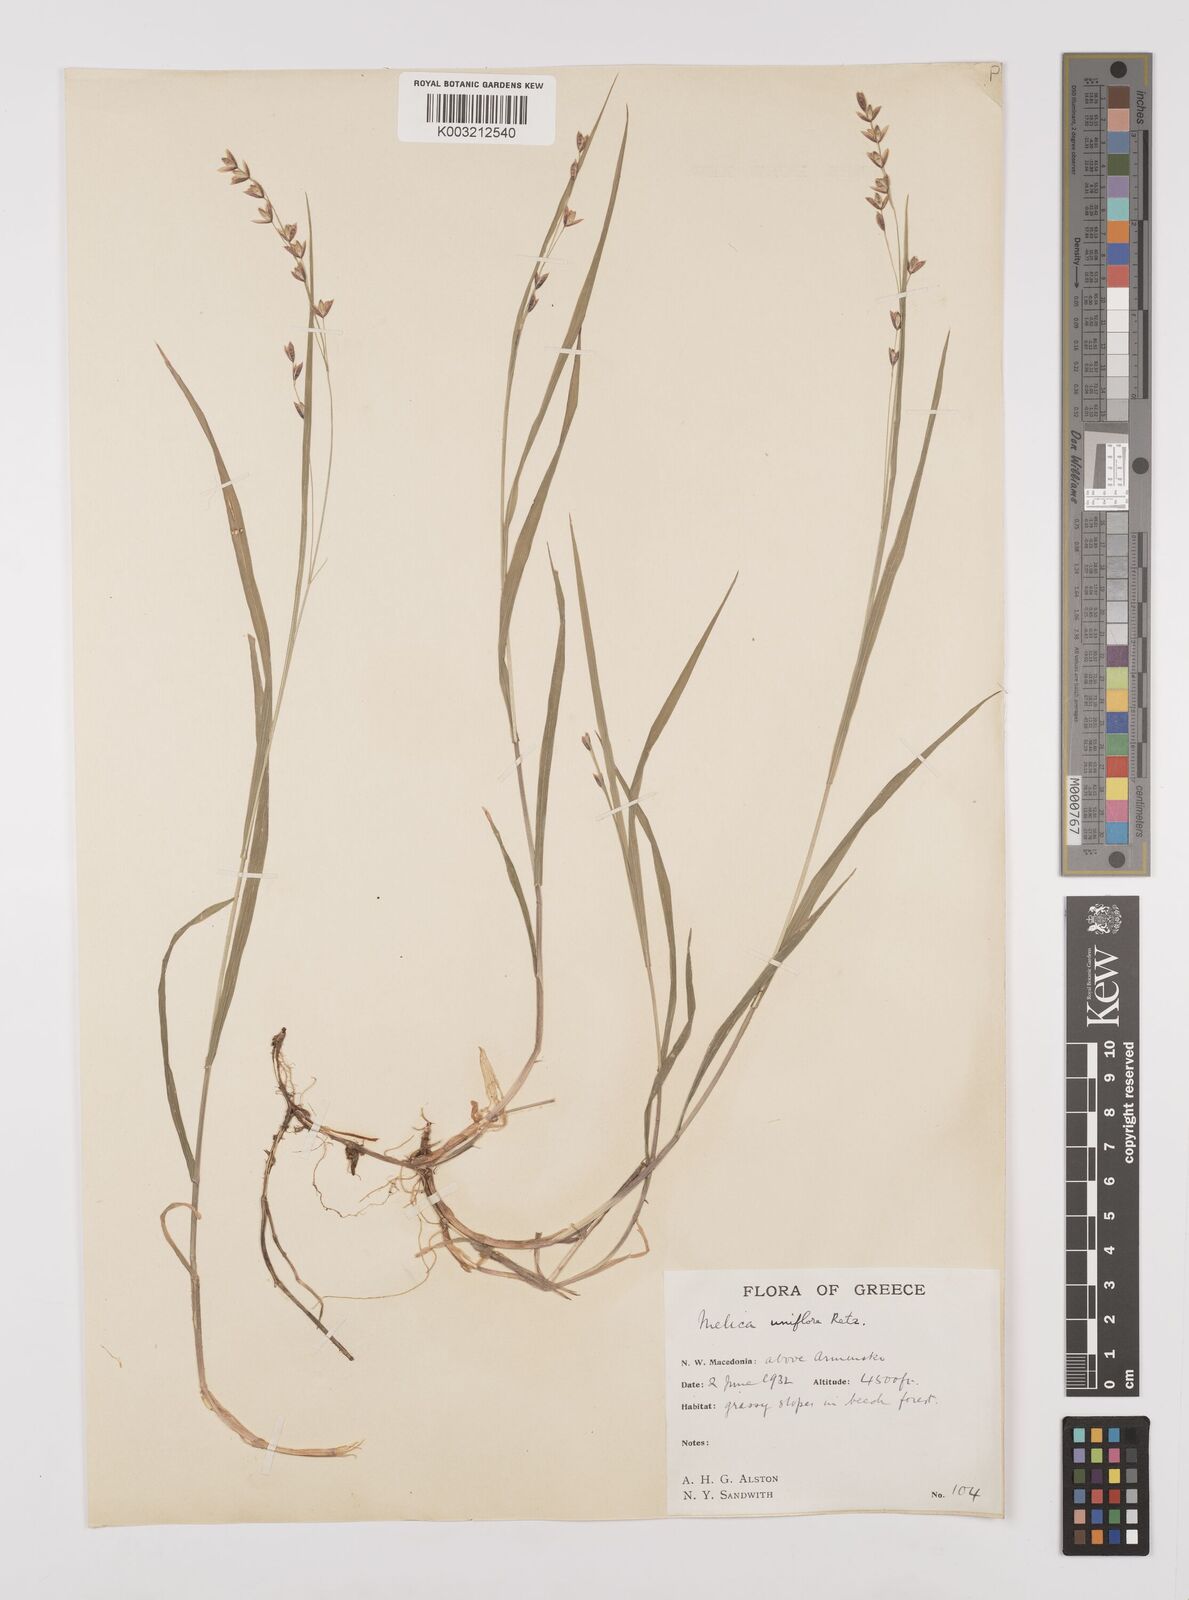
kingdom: Plantae
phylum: Tracheophyta
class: Liliopsida
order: Poales
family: Poaceae
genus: Melica
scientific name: Melica uniflora
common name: Wood melick
